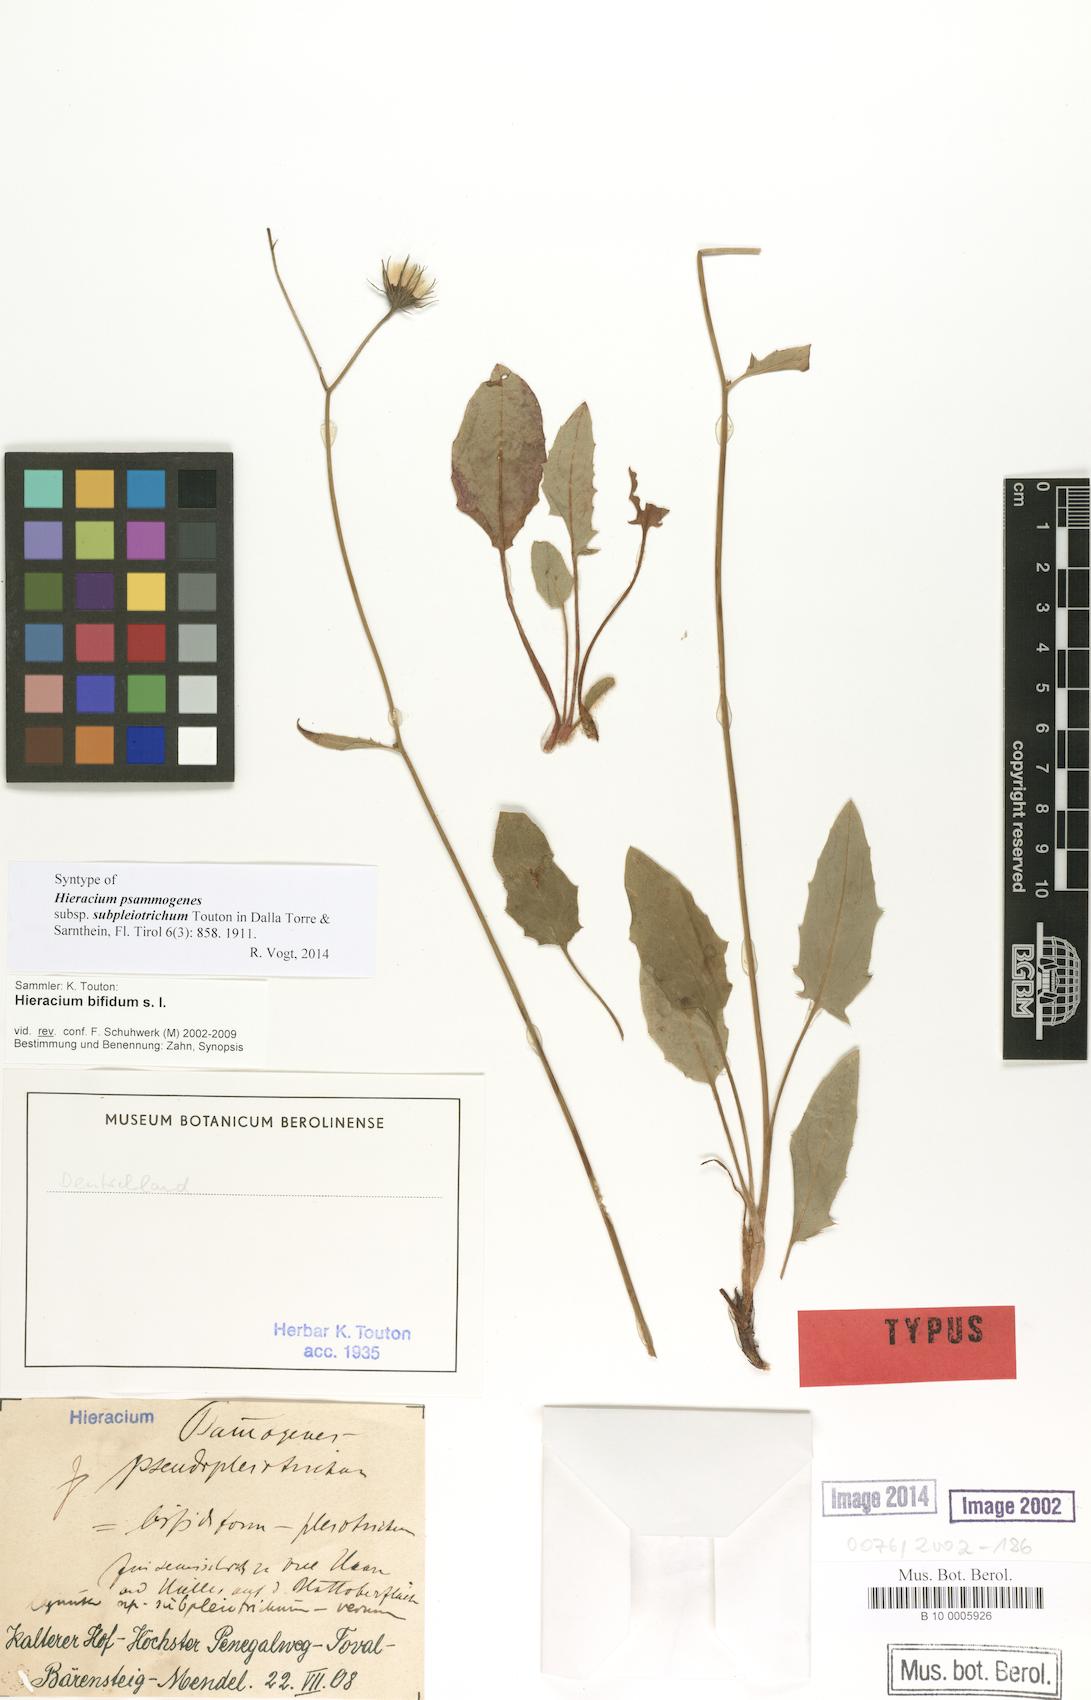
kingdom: Plantae
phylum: Tracheophyta
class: Magnoliopsida
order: Asterales
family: Asteraceae
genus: Hieracium
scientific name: Hieracium bifidum
